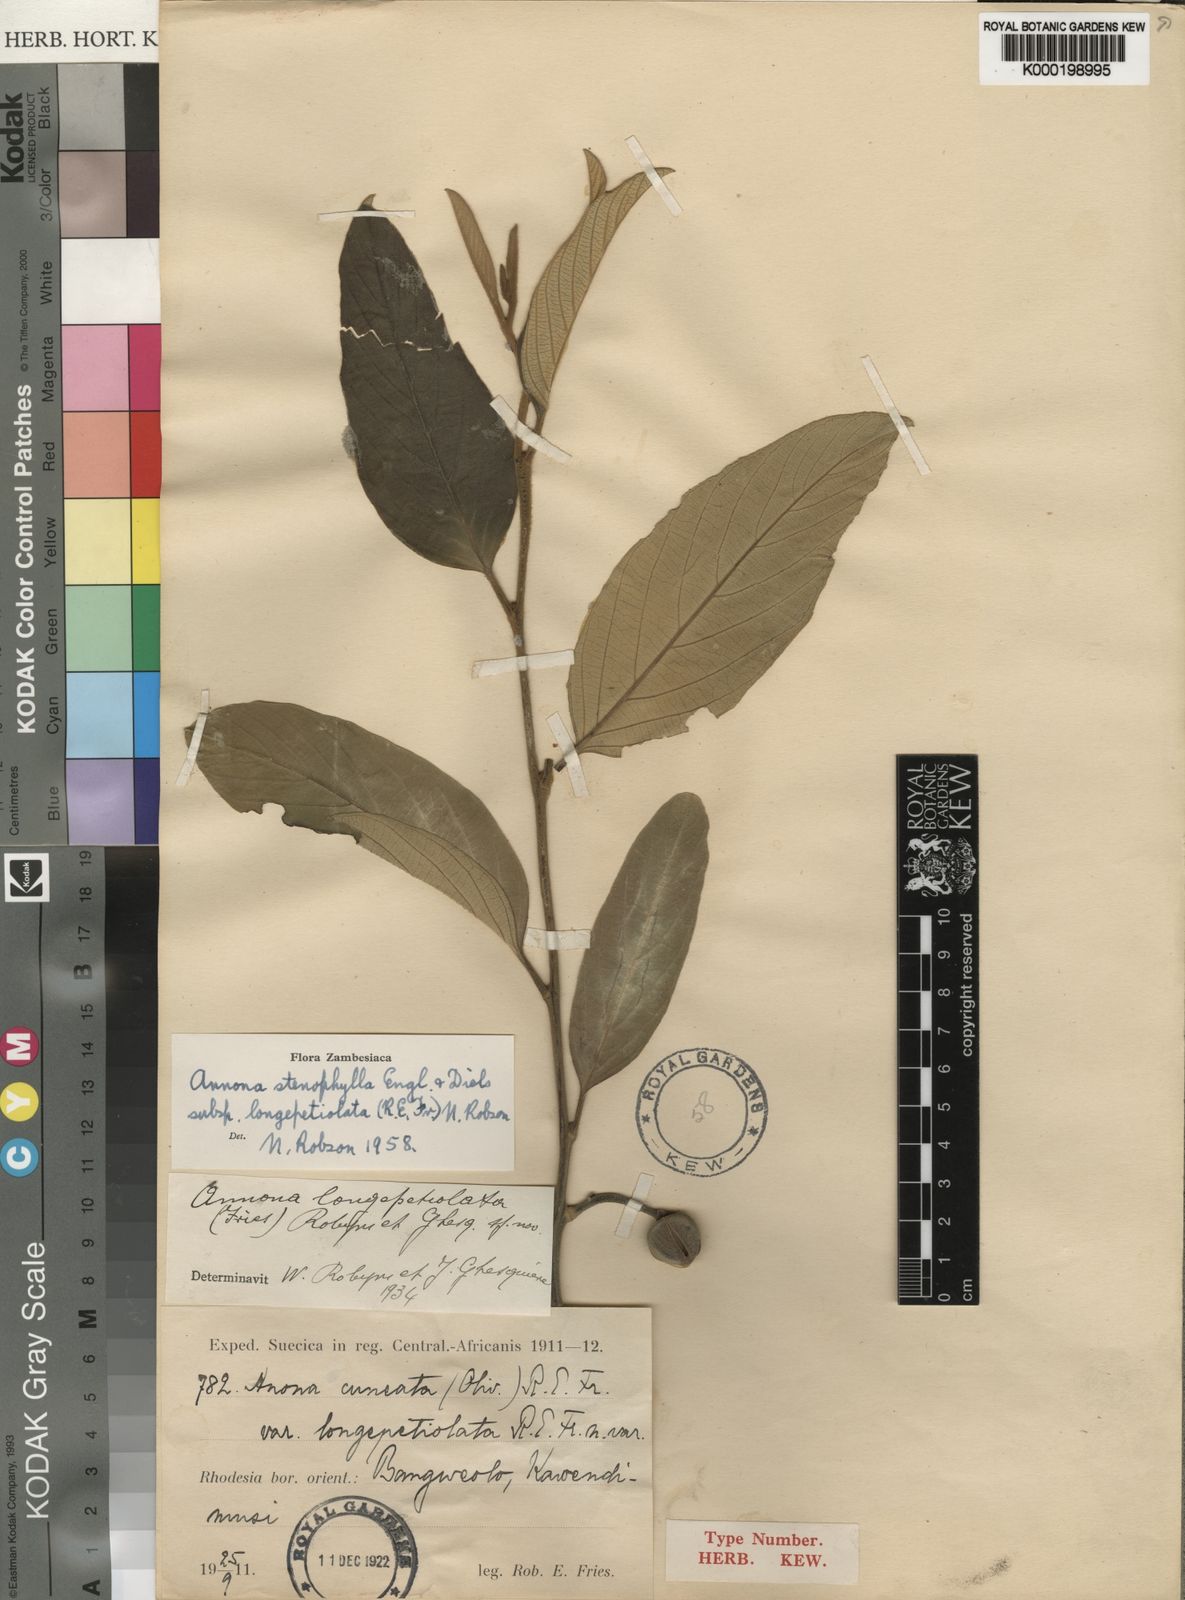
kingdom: Plantae
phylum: Tracheophyta
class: Magnoliopsida
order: Magnoliales
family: Annonaceae
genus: Annona
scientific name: Annona stenophylla
